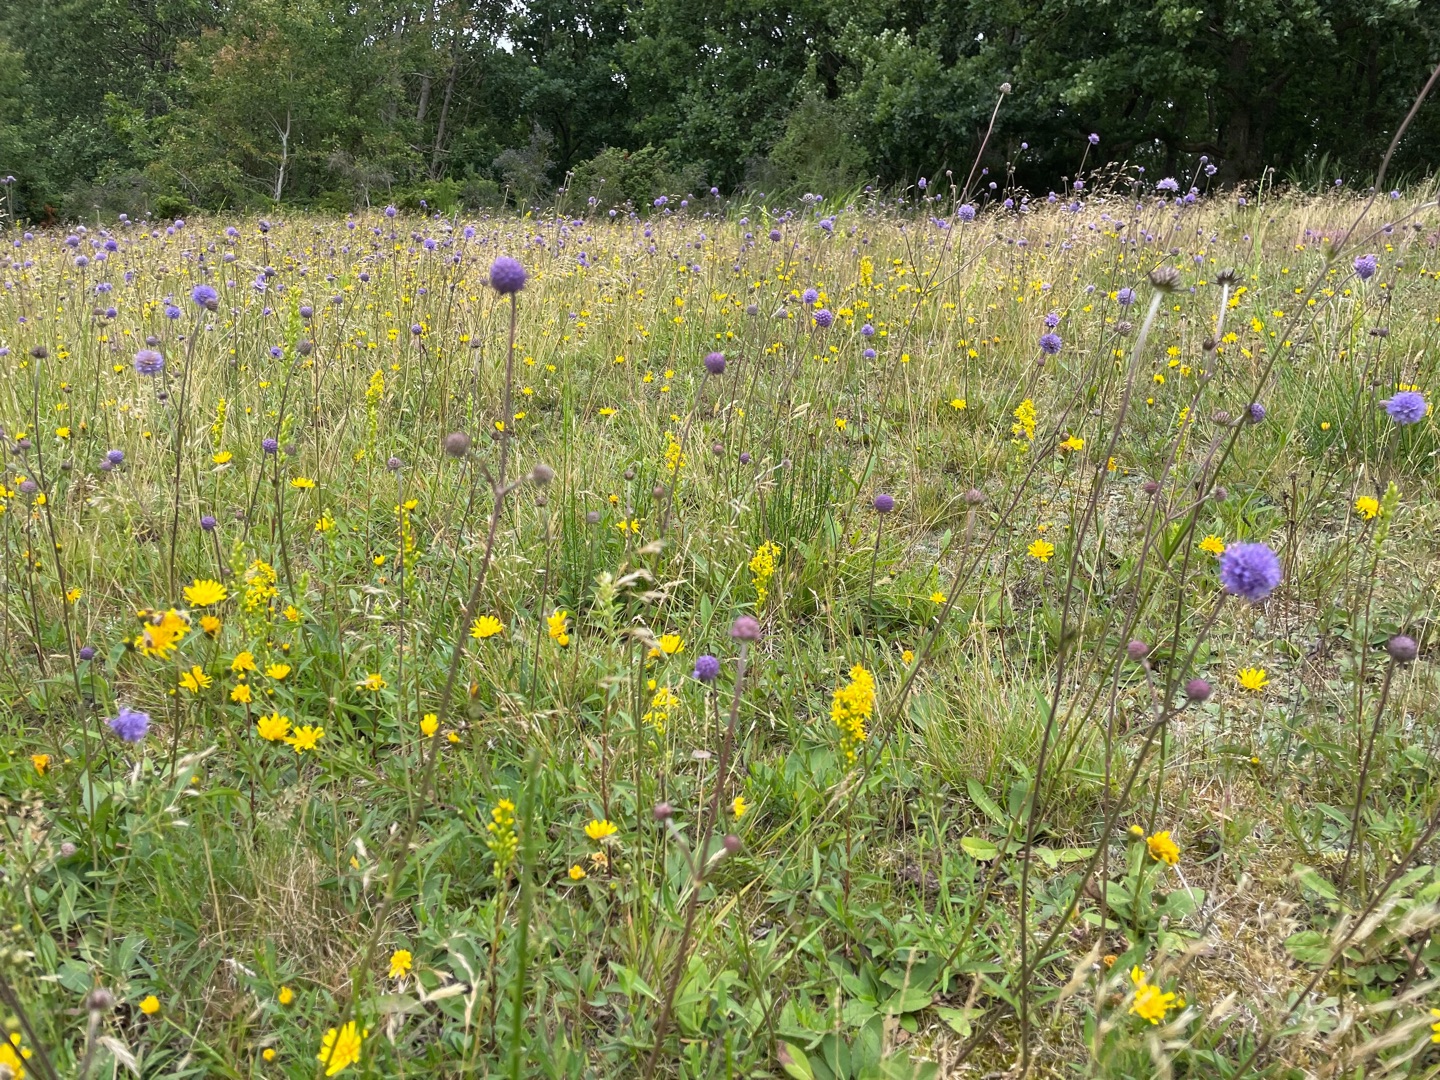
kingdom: Plantae
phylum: Tracheophyta
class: Magnoliopsida
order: Dipsacales
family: Caprifoliaceae
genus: Succisa
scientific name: Succisa pratensis
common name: Djævelsbid
